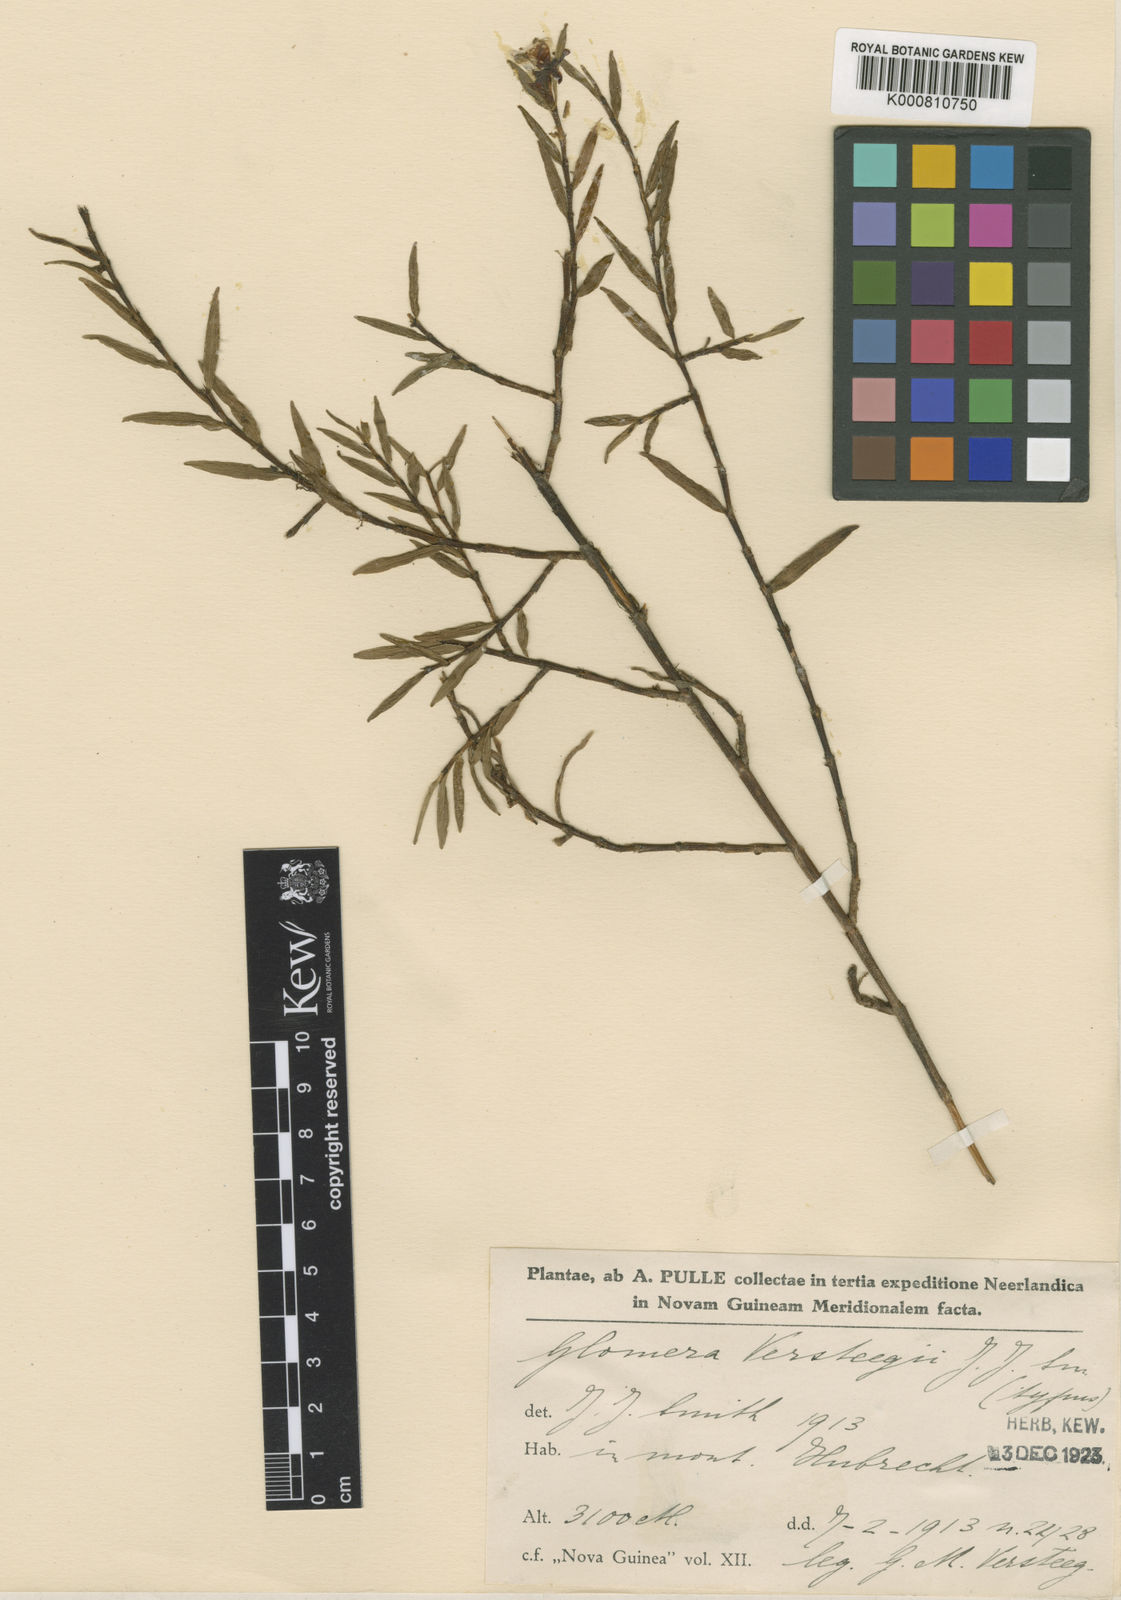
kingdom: Plantae
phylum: Tracheophyta
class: Liliopsida
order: Asparagales
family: Orchidaceae
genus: Glomera
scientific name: Glomera versteegii
